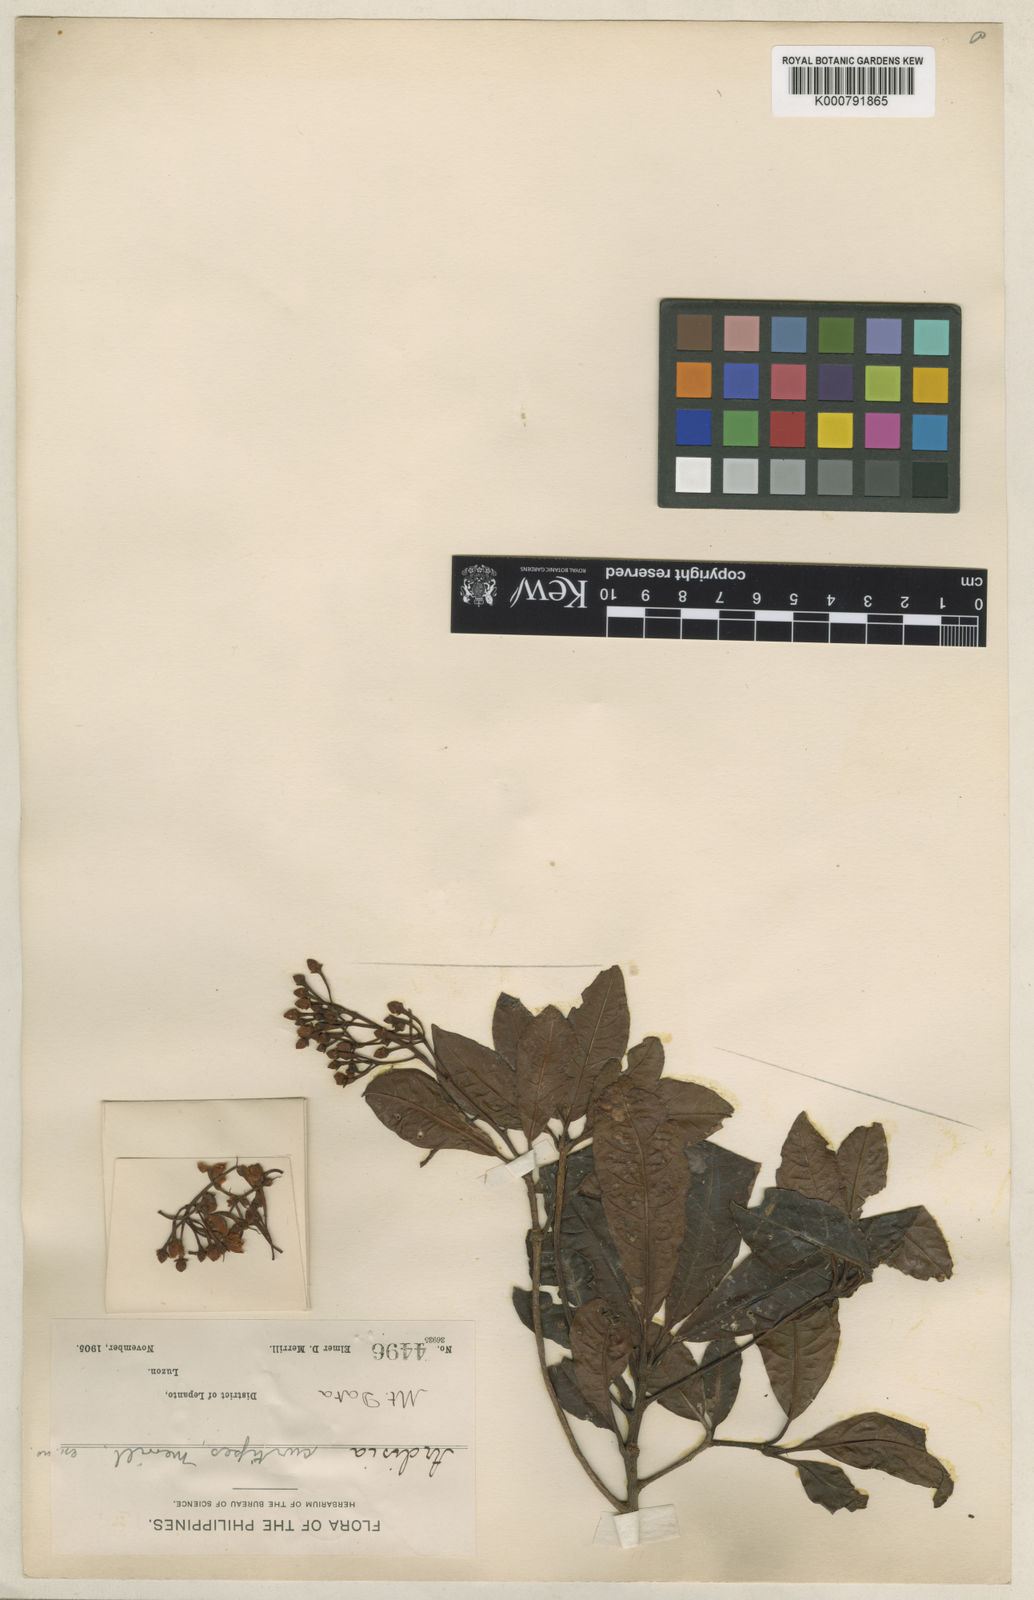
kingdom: Plantae
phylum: Tracheophyta
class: Magnoliopsida
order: Ericales
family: Primulaceae
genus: Ardisia
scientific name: Ardisia serrata
